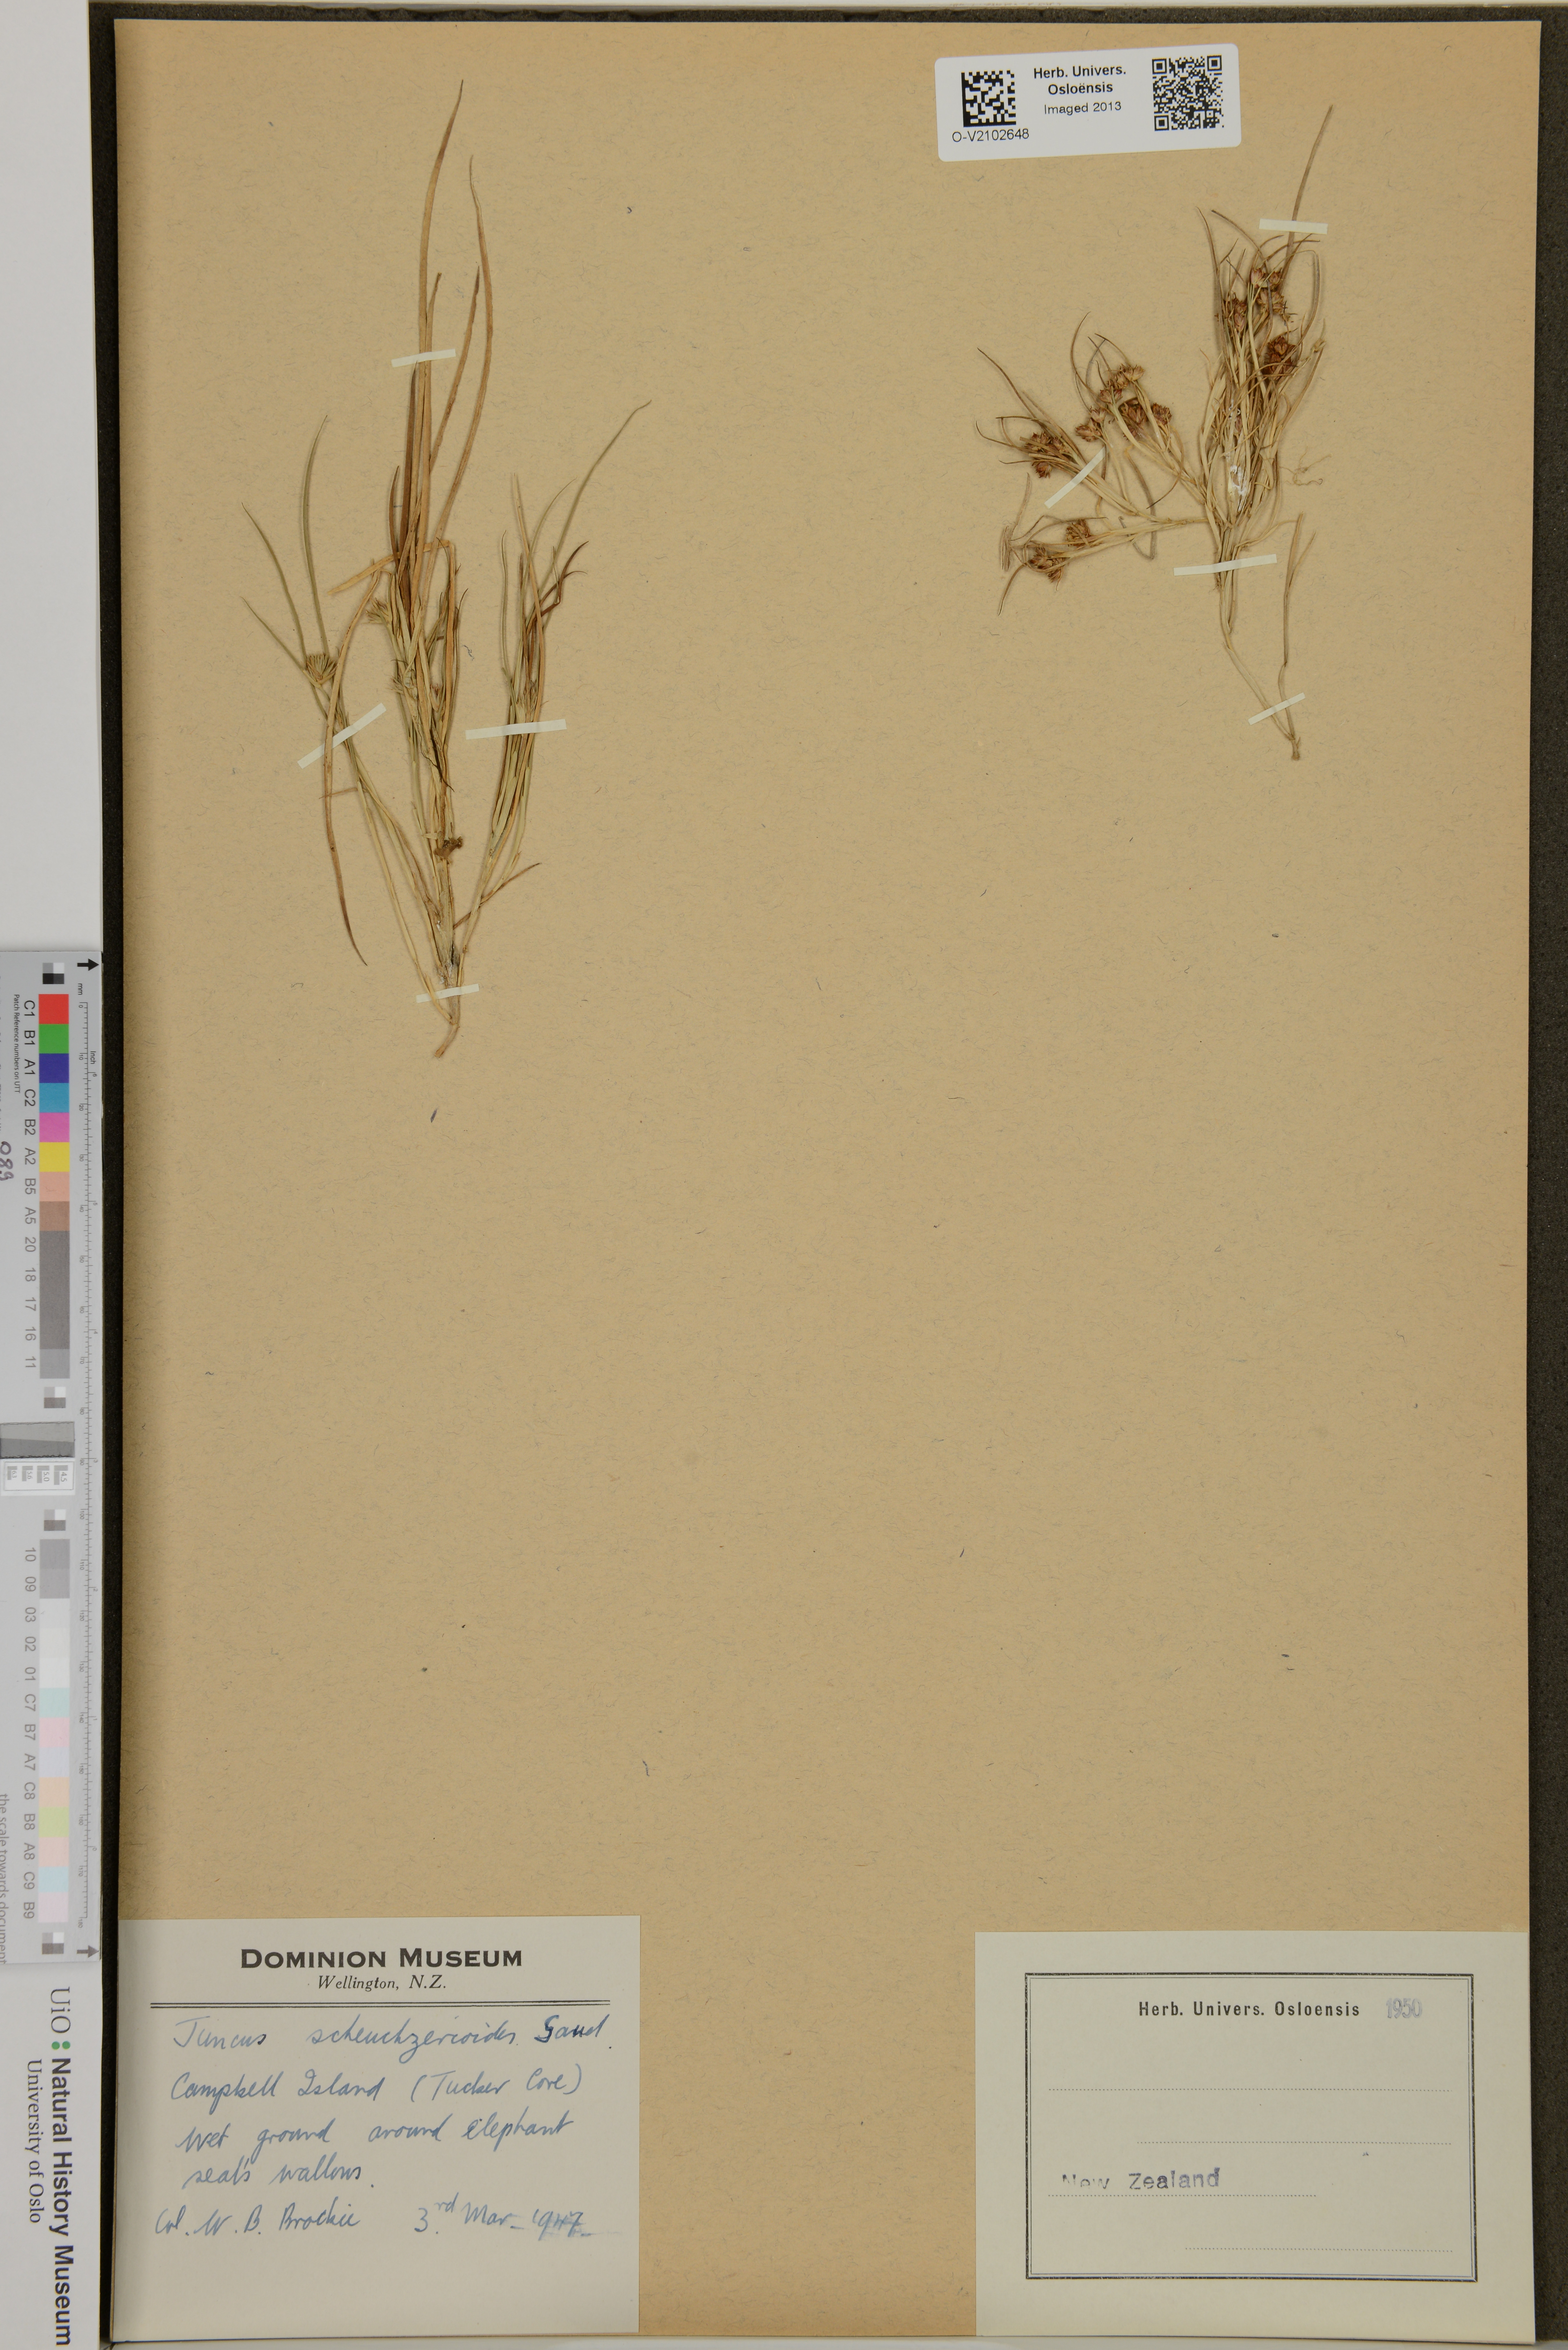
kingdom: Plantae
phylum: Tracheophyta
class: Liliopsida
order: Poales
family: Juncaceae
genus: Juncus
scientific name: Juncus scheuchzerioides
